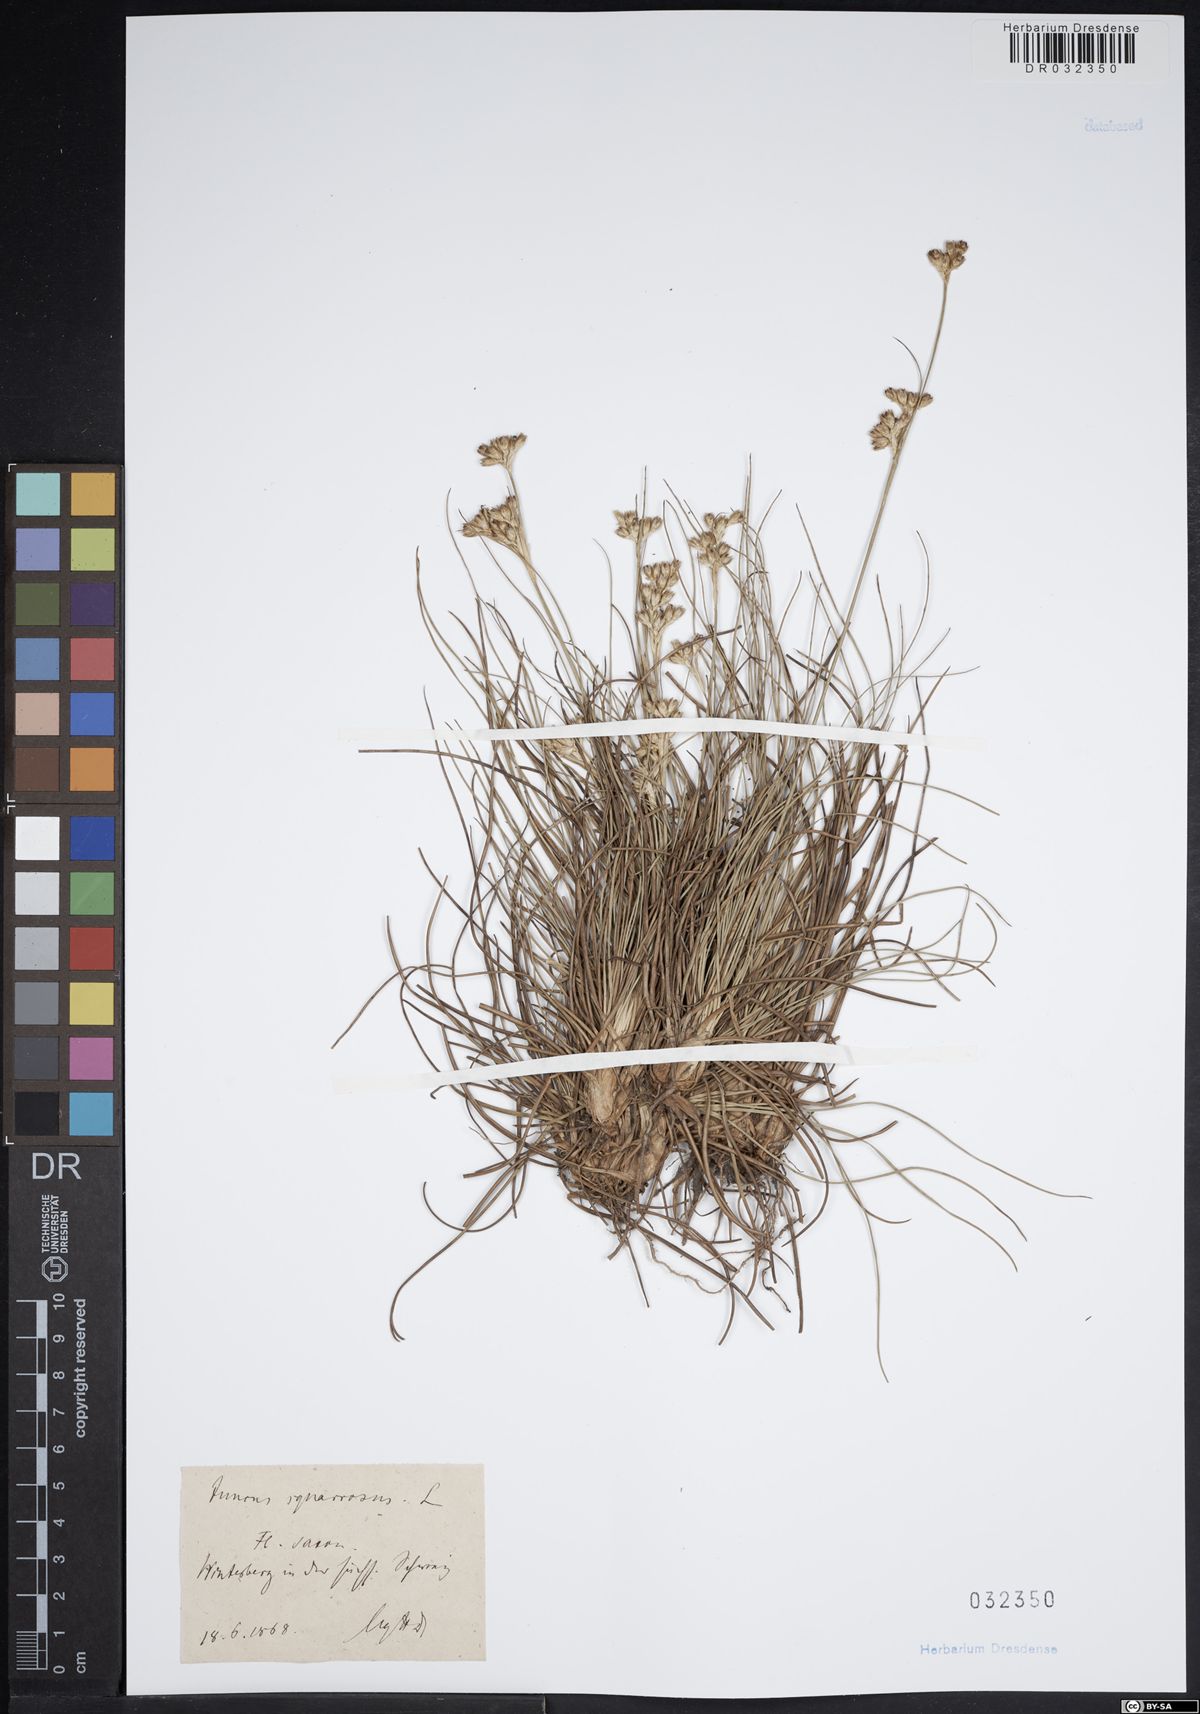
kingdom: Plantae
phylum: Tracheophyta
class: Liliopsida
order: Poales
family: Juncaceae
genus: Juncus
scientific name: Juncus squarrosus
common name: Heath rush
